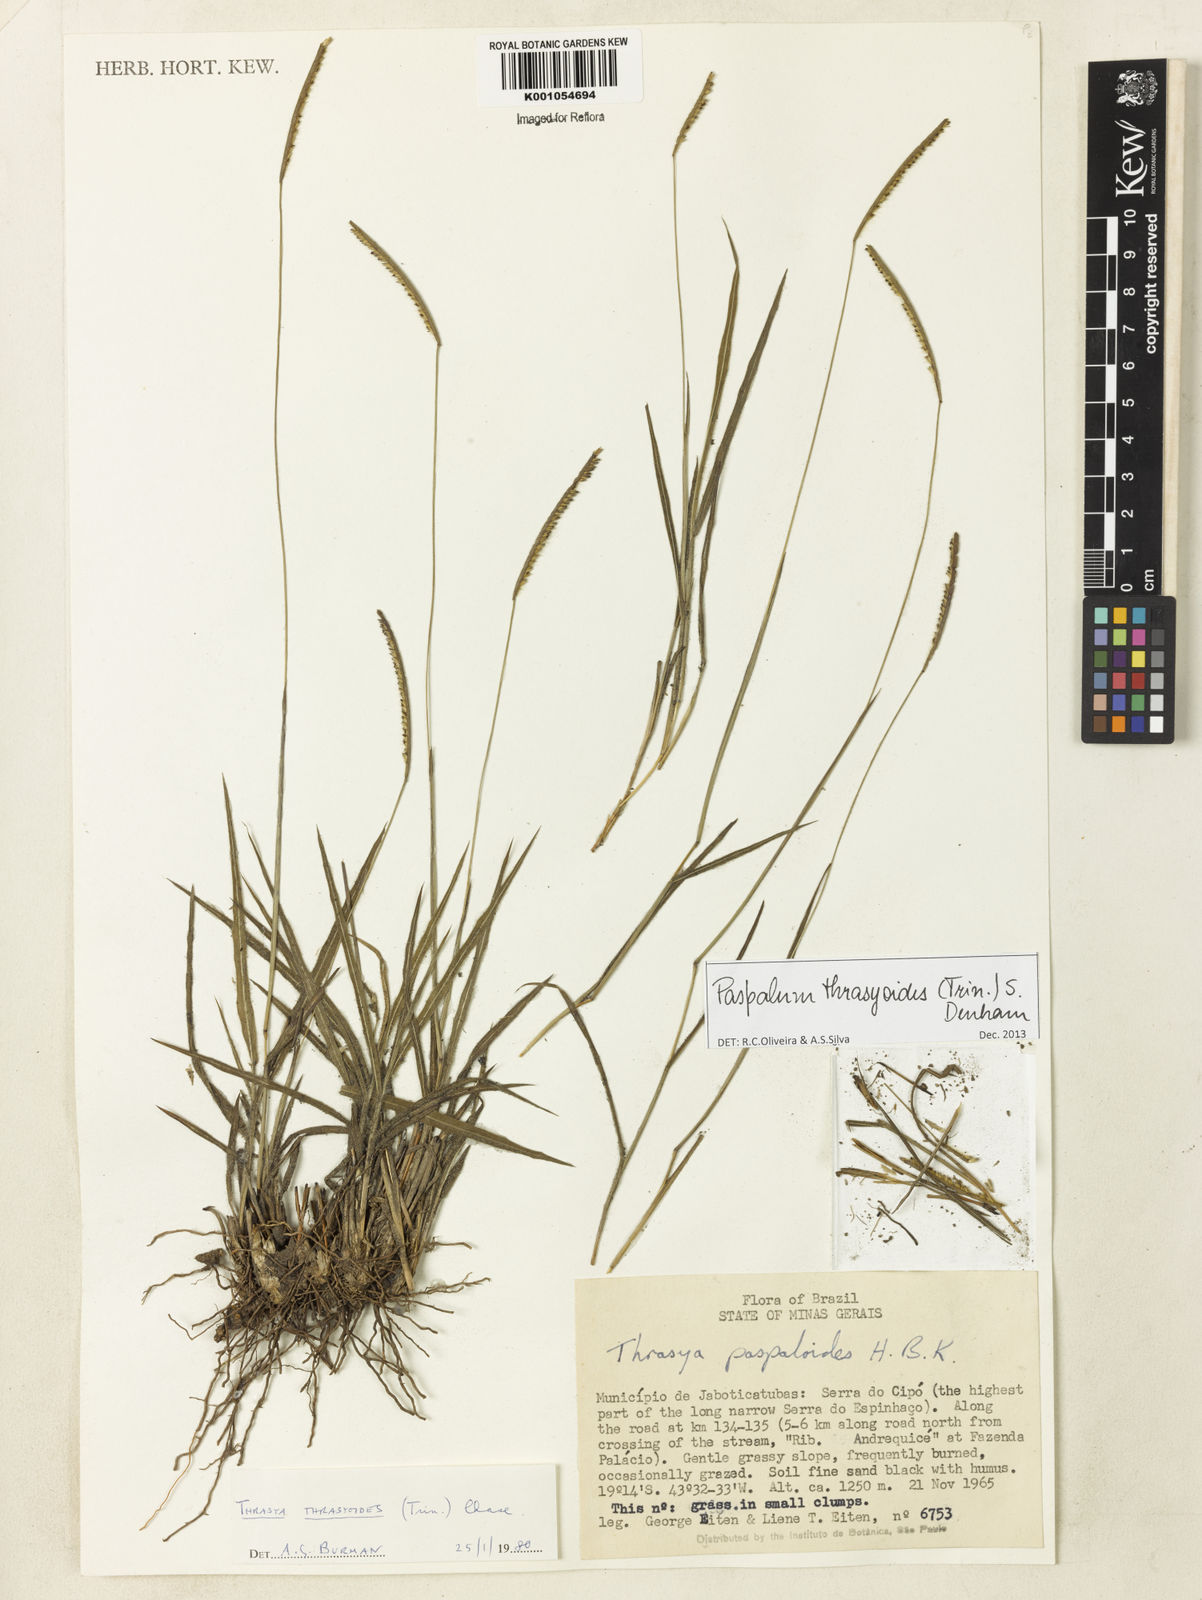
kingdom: Plantae
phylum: Tracheophyta
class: Liliopsida
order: Poales
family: Poaceae
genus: Paspalum
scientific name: Paspalum thrasyoides
